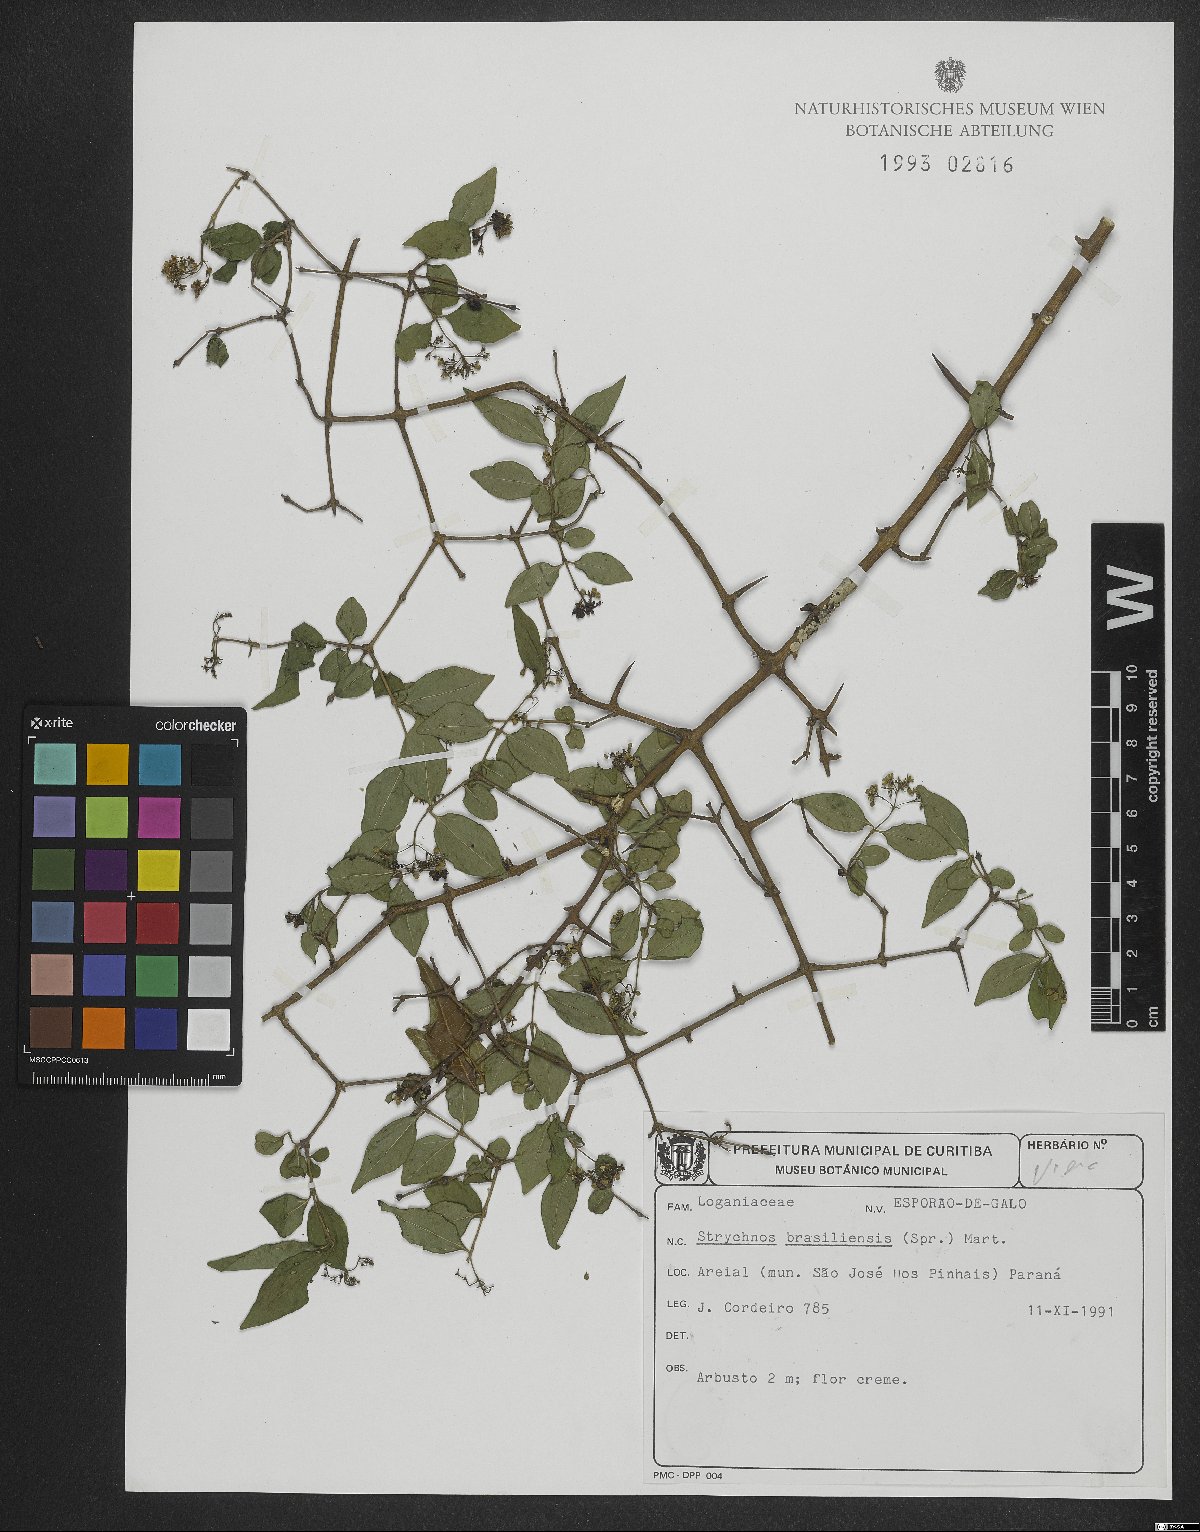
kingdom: Plantae
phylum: Tracheophyta
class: Magnoliopsida
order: Gentianales
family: Loganiaceae
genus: Strychnos
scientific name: Strychnos brasiliensis
